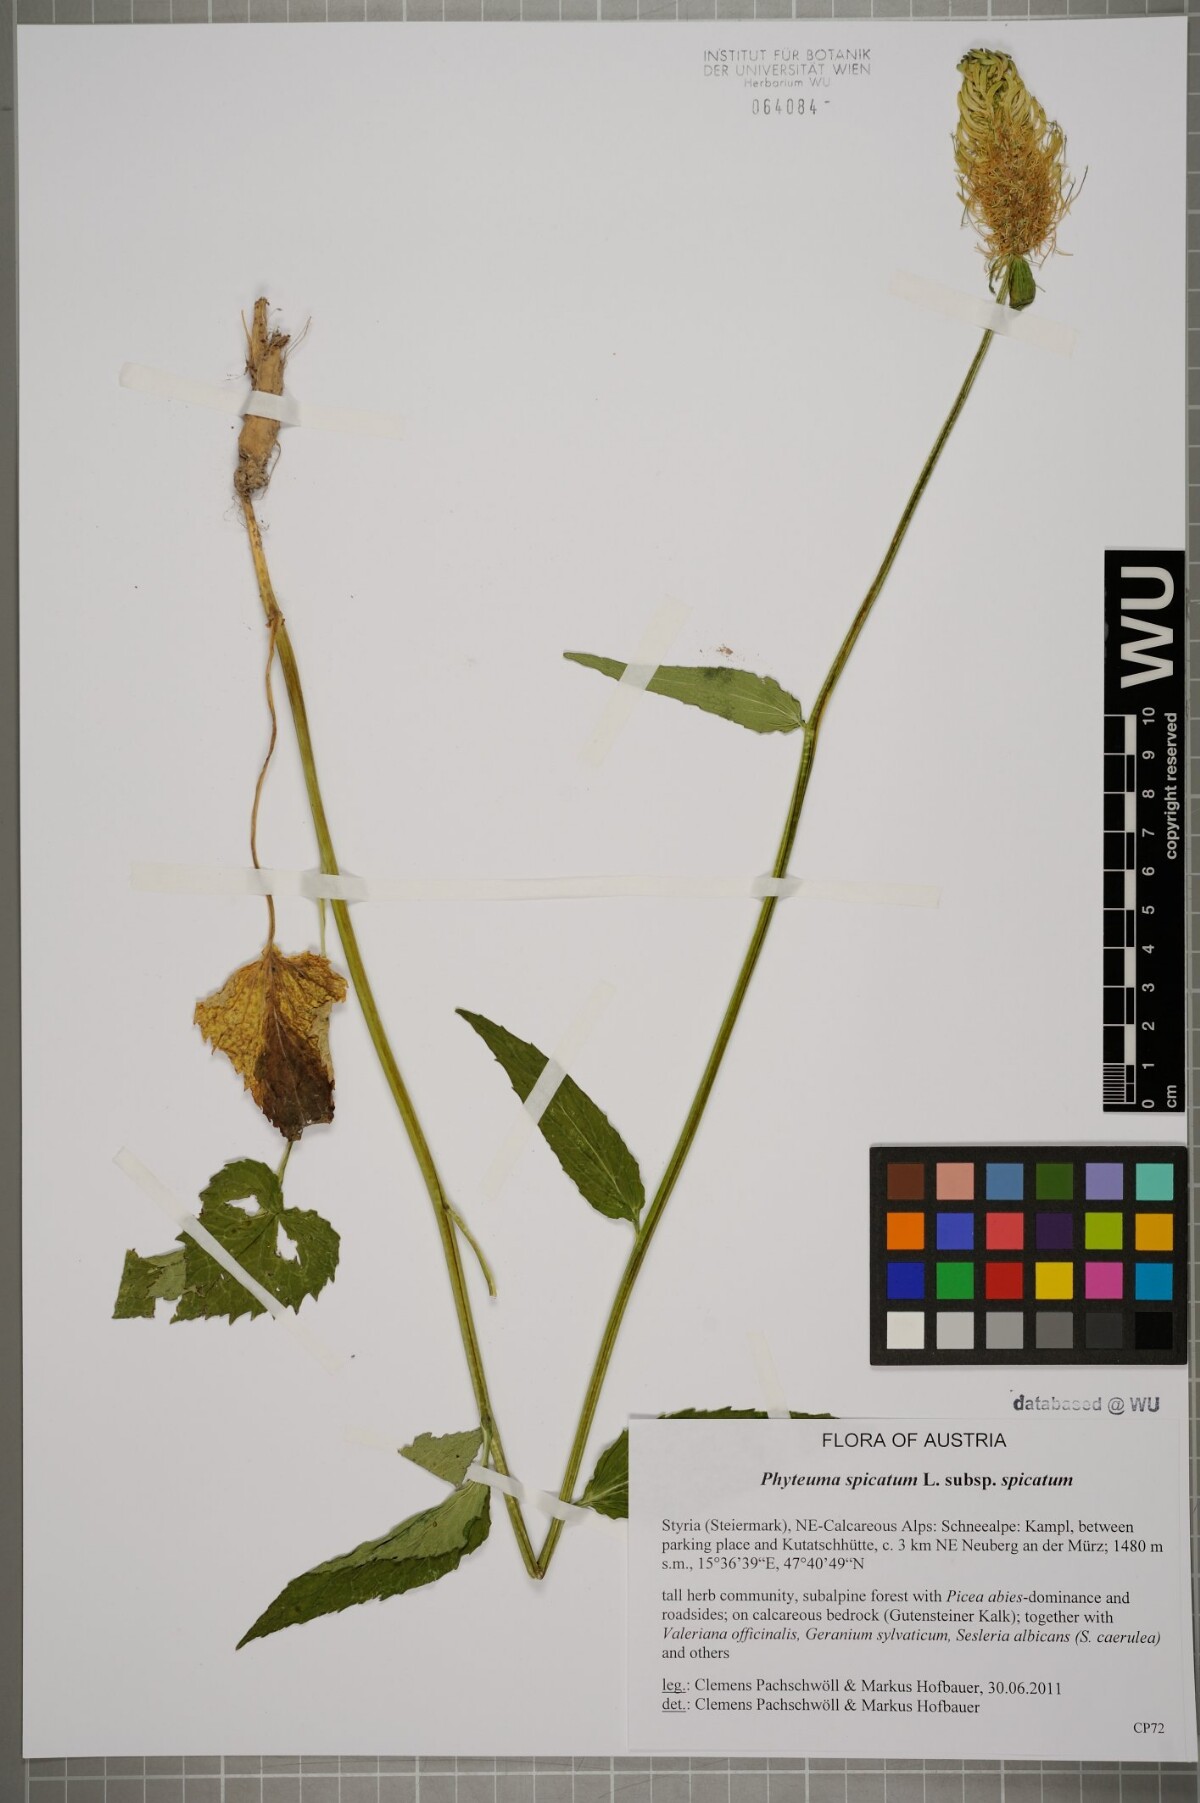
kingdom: Plantae
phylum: Tracheophyta
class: Magnoliopsida
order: Asterales
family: Campanulaceae
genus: Phyteuma
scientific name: Phyteuma spicatum
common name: Spiked rampion
